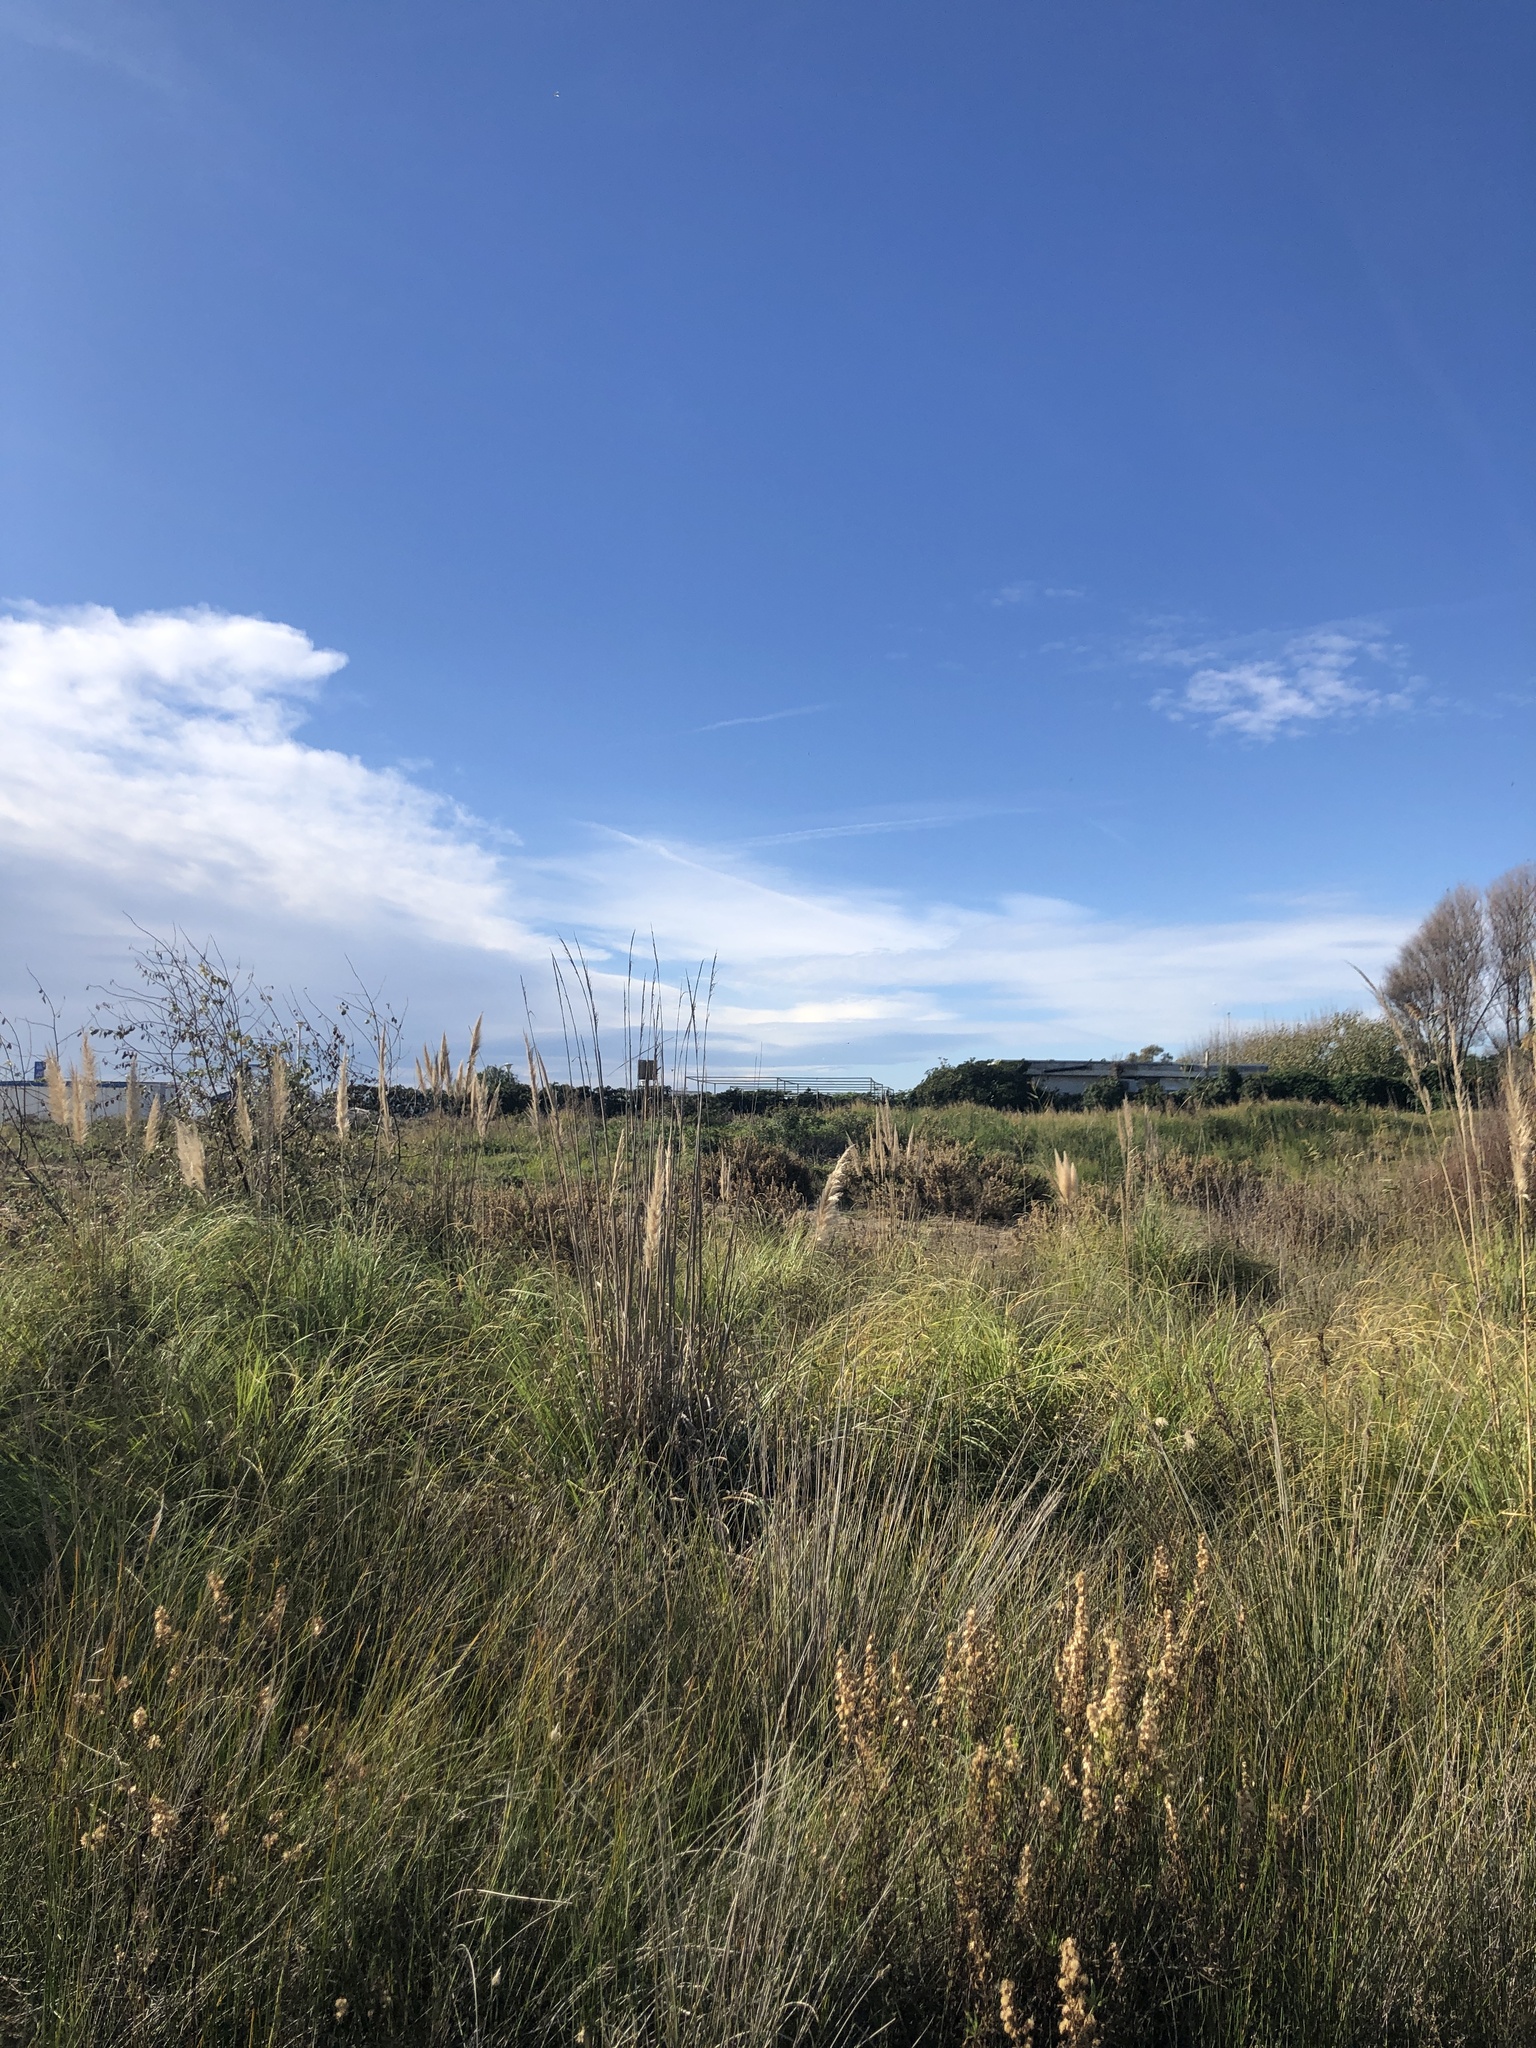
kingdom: Plantae
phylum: Tracheophyta
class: Liliopsida
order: Poales
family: Poaceae
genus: Cortaderia
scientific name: Cortaderia selloana
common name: Uruguayan pampas grass
